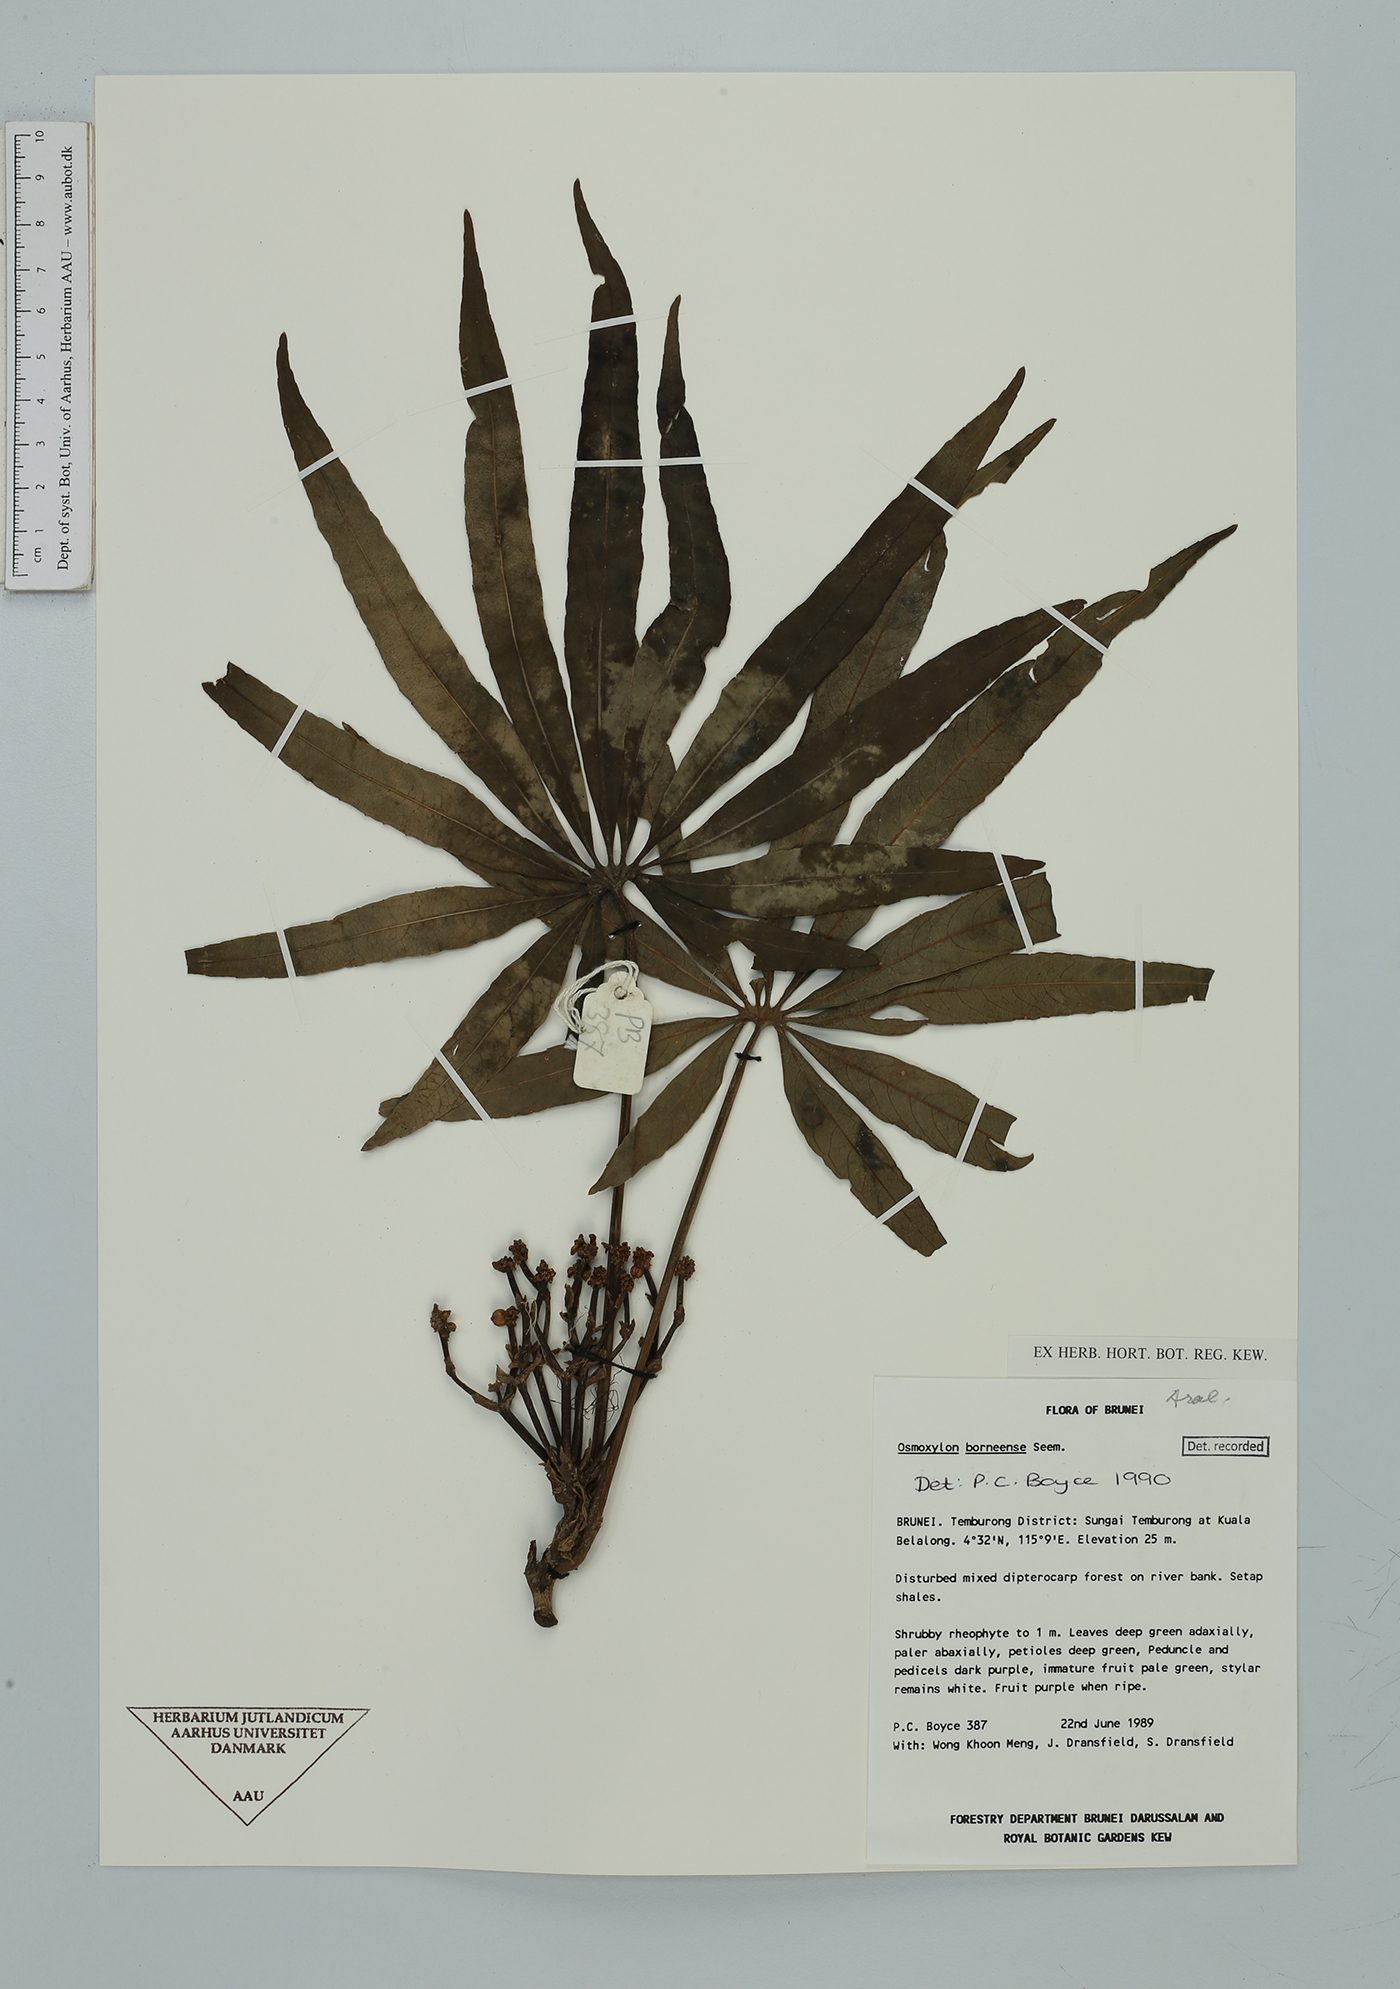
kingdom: Plantae
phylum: Tracheophyta
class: Magnoliopsida
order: Apiales
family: Araliaceae
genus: Osmoxylon
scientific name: Osmoxylon borneense
